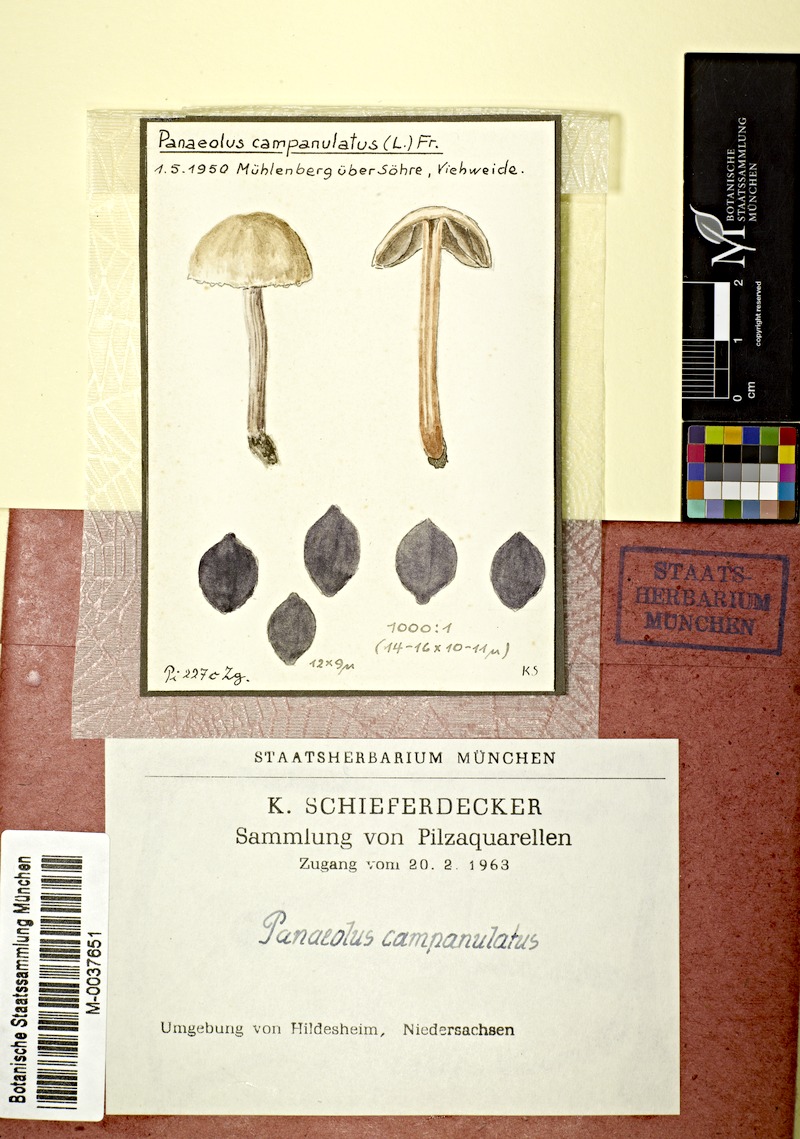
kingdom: Fungi
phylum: Basidiomycota
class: Agaricomycetes
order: Agaricales
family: Bolbitiaceae
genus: Panaeolus
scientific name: Panaeolus papilionaceus
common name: Petticoat mottlegill
